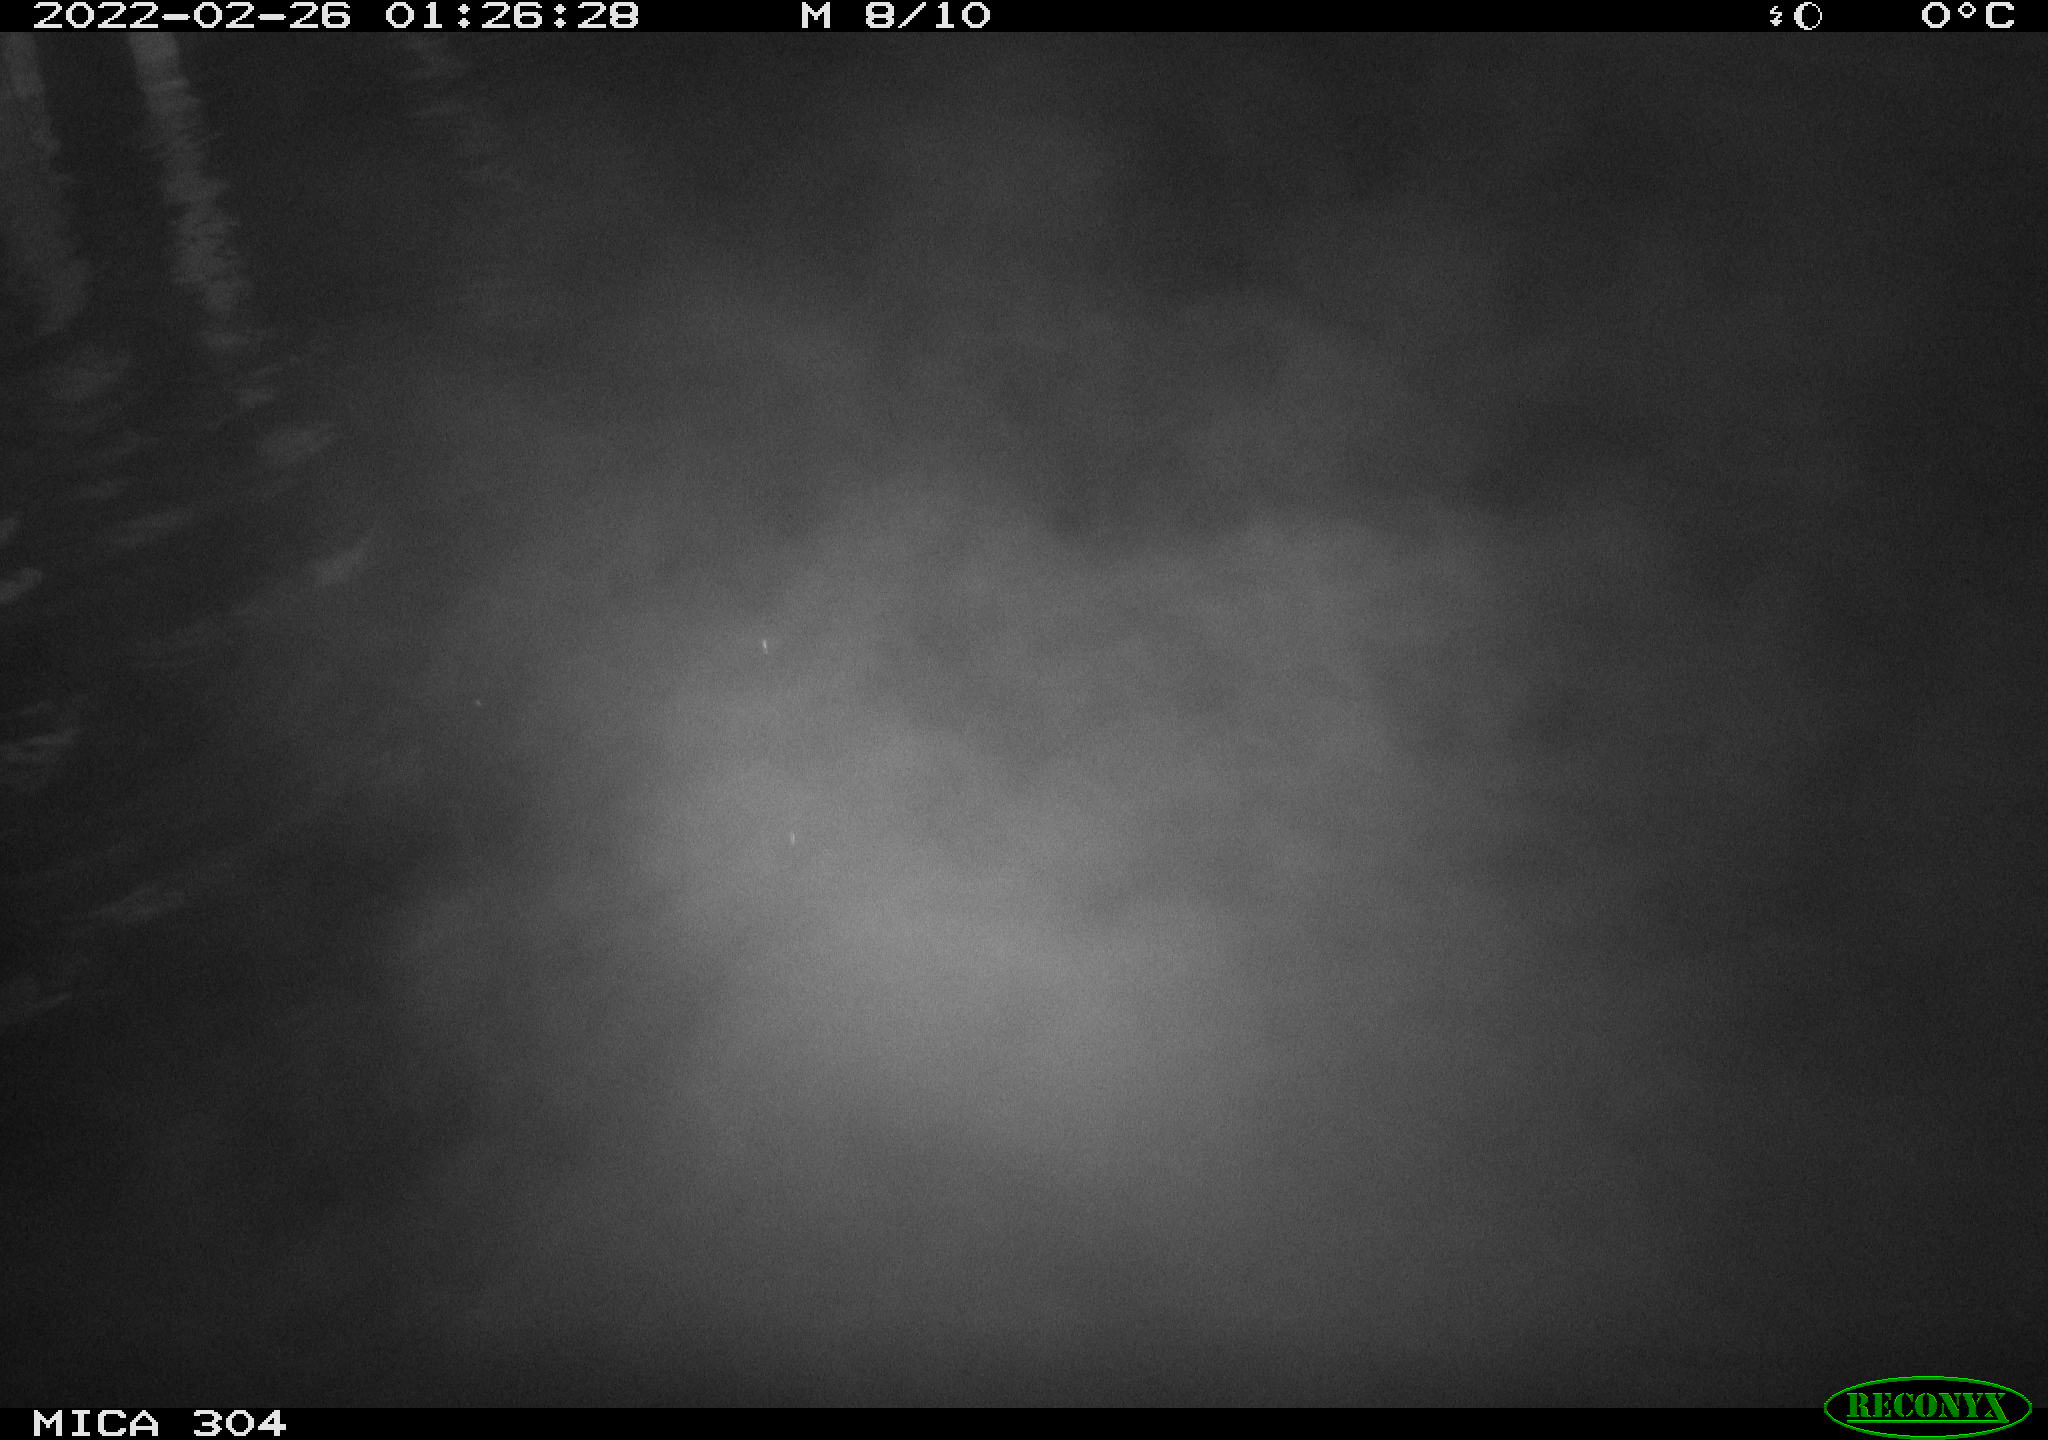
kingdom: Animalia
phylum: Chordata
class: Aves
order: Anseriformes
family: Anatidae
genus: Anas
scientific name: Anas platyrhynchos
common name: Mallard
